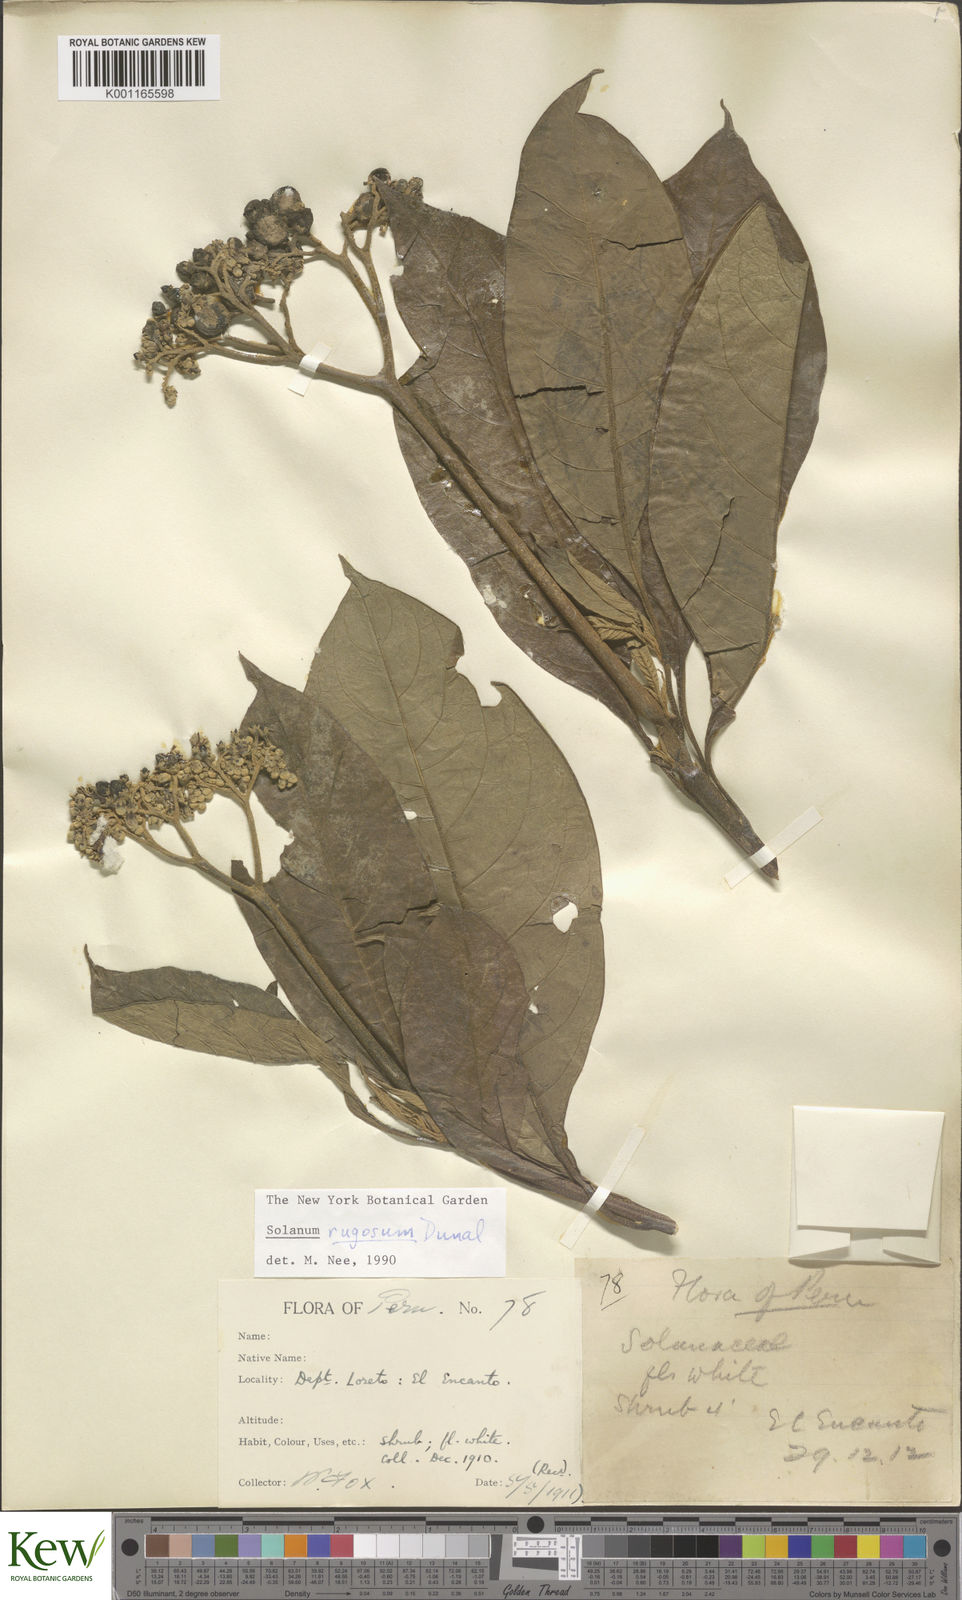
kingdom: Plantae
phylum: Tracheophyta
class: Magnoliopsida
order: Solanales
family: Solanaceae
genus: Solanum
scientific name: Solanum rugosum
